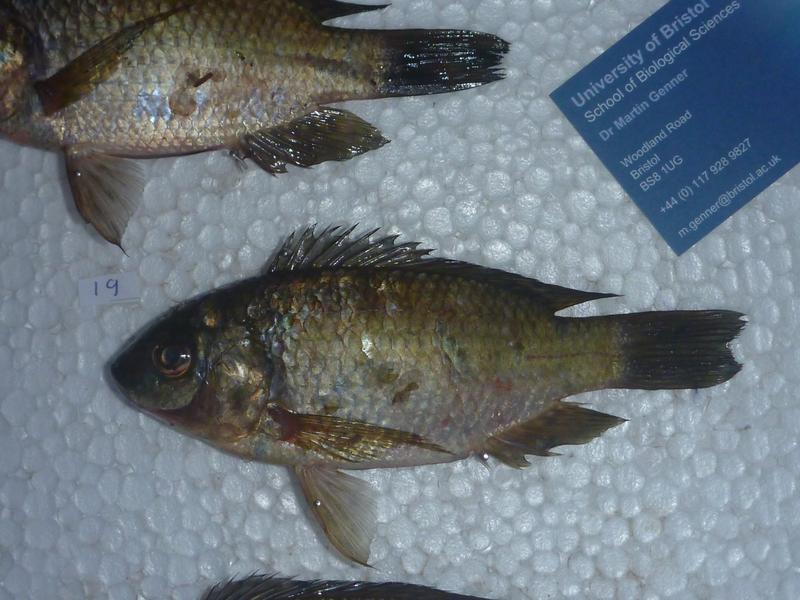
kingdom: Animalia
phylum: Chordata
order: Perciformes
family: Cichlidae
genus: Oreochromis
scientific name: Oreochromis leucostictus
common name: Blue spotted tilapia
